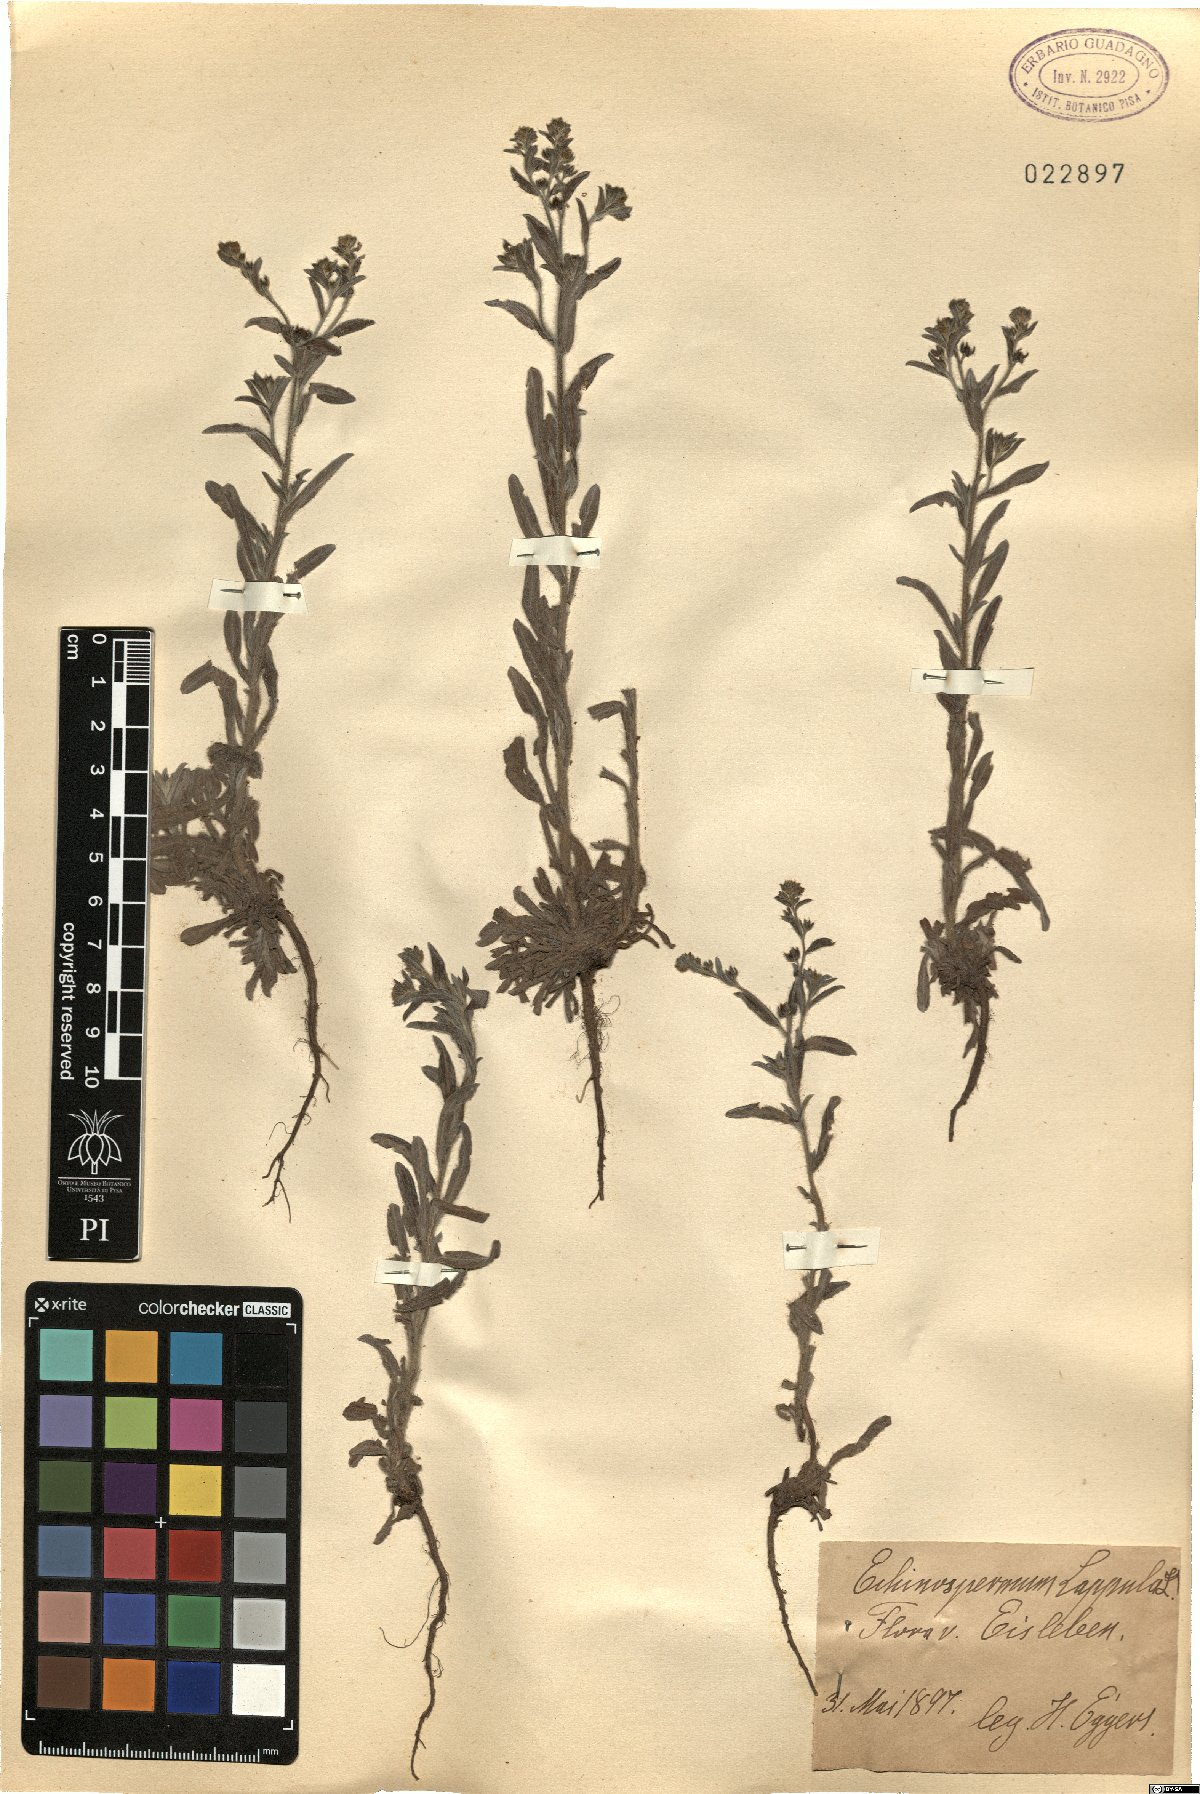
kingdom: Plantae
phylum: Tracheophyta
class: Magnoliopsida
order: Boraginales
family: Boraginaceae
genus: Lappula
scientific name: Lappula squarrosa
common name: European stickseed
